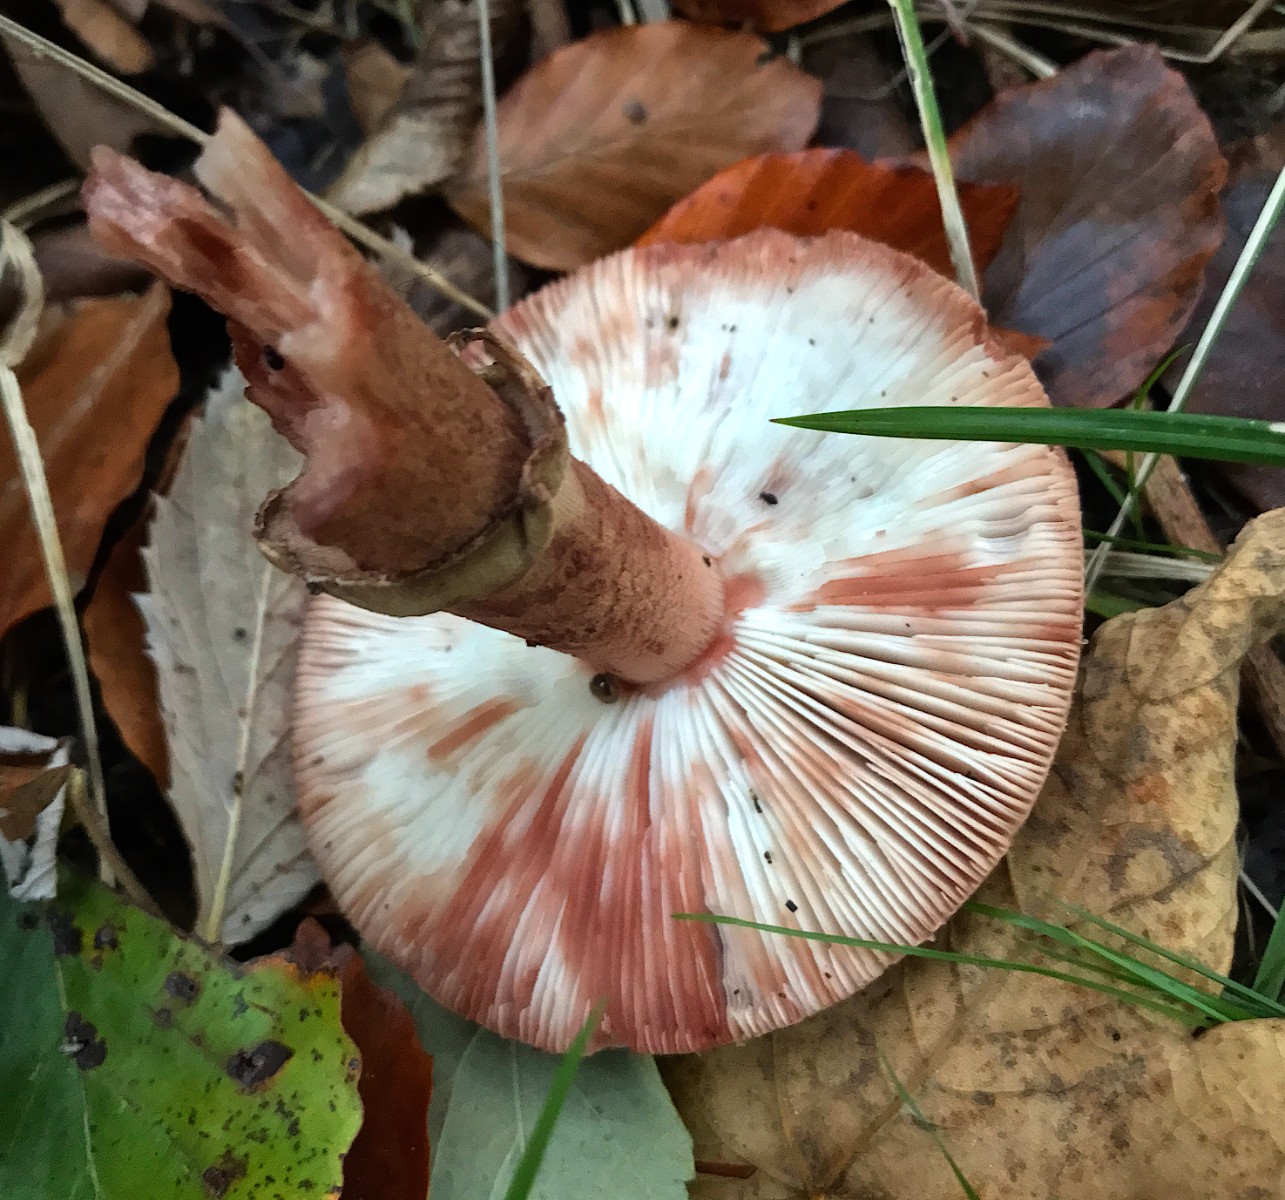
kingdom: Fungi
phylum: Basidiomycota
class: Agaricomycetes
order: Agaricales
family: Amanitaceae
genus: Amanita
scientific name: Amanita rubescens
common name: rødmende fluesvamp
